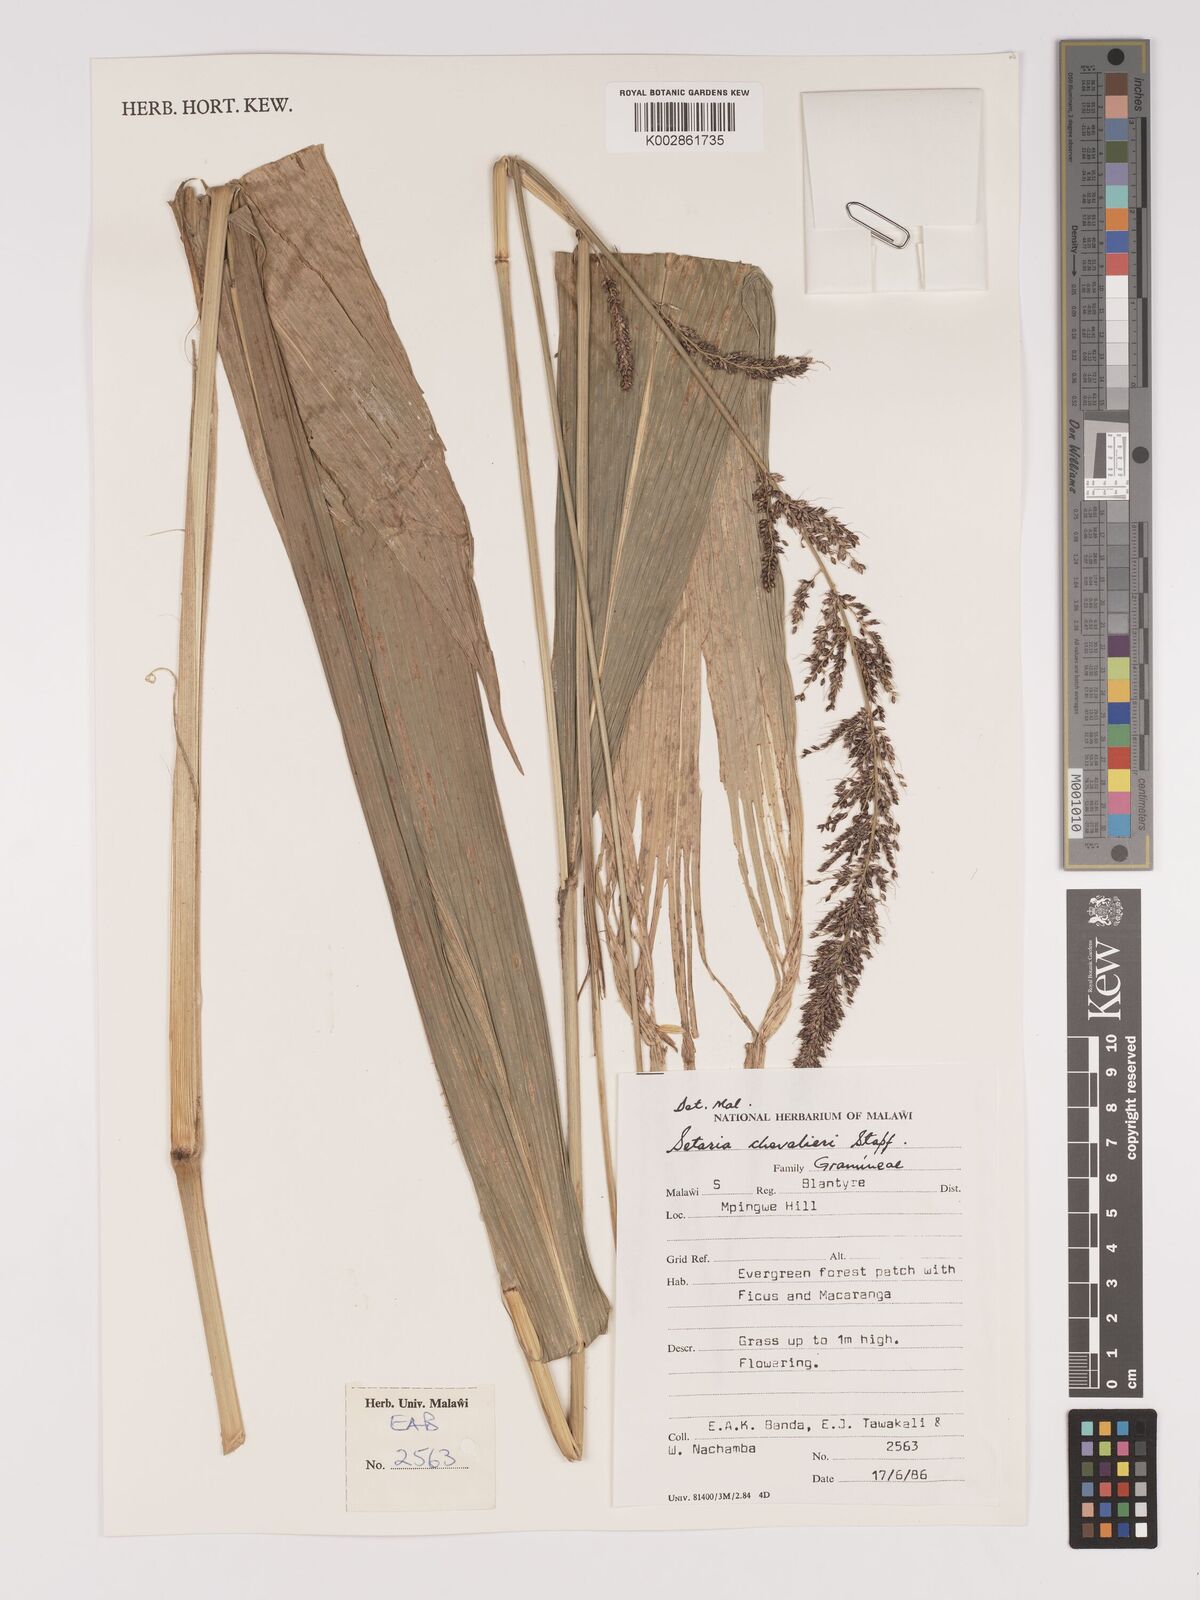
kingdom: Plantae
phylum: Tracheophyta
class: Liliopsida
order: Poales
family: Poaceae
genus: Setaria
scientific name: Setaria megaphylla
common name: Bigleaf bristlegrass
